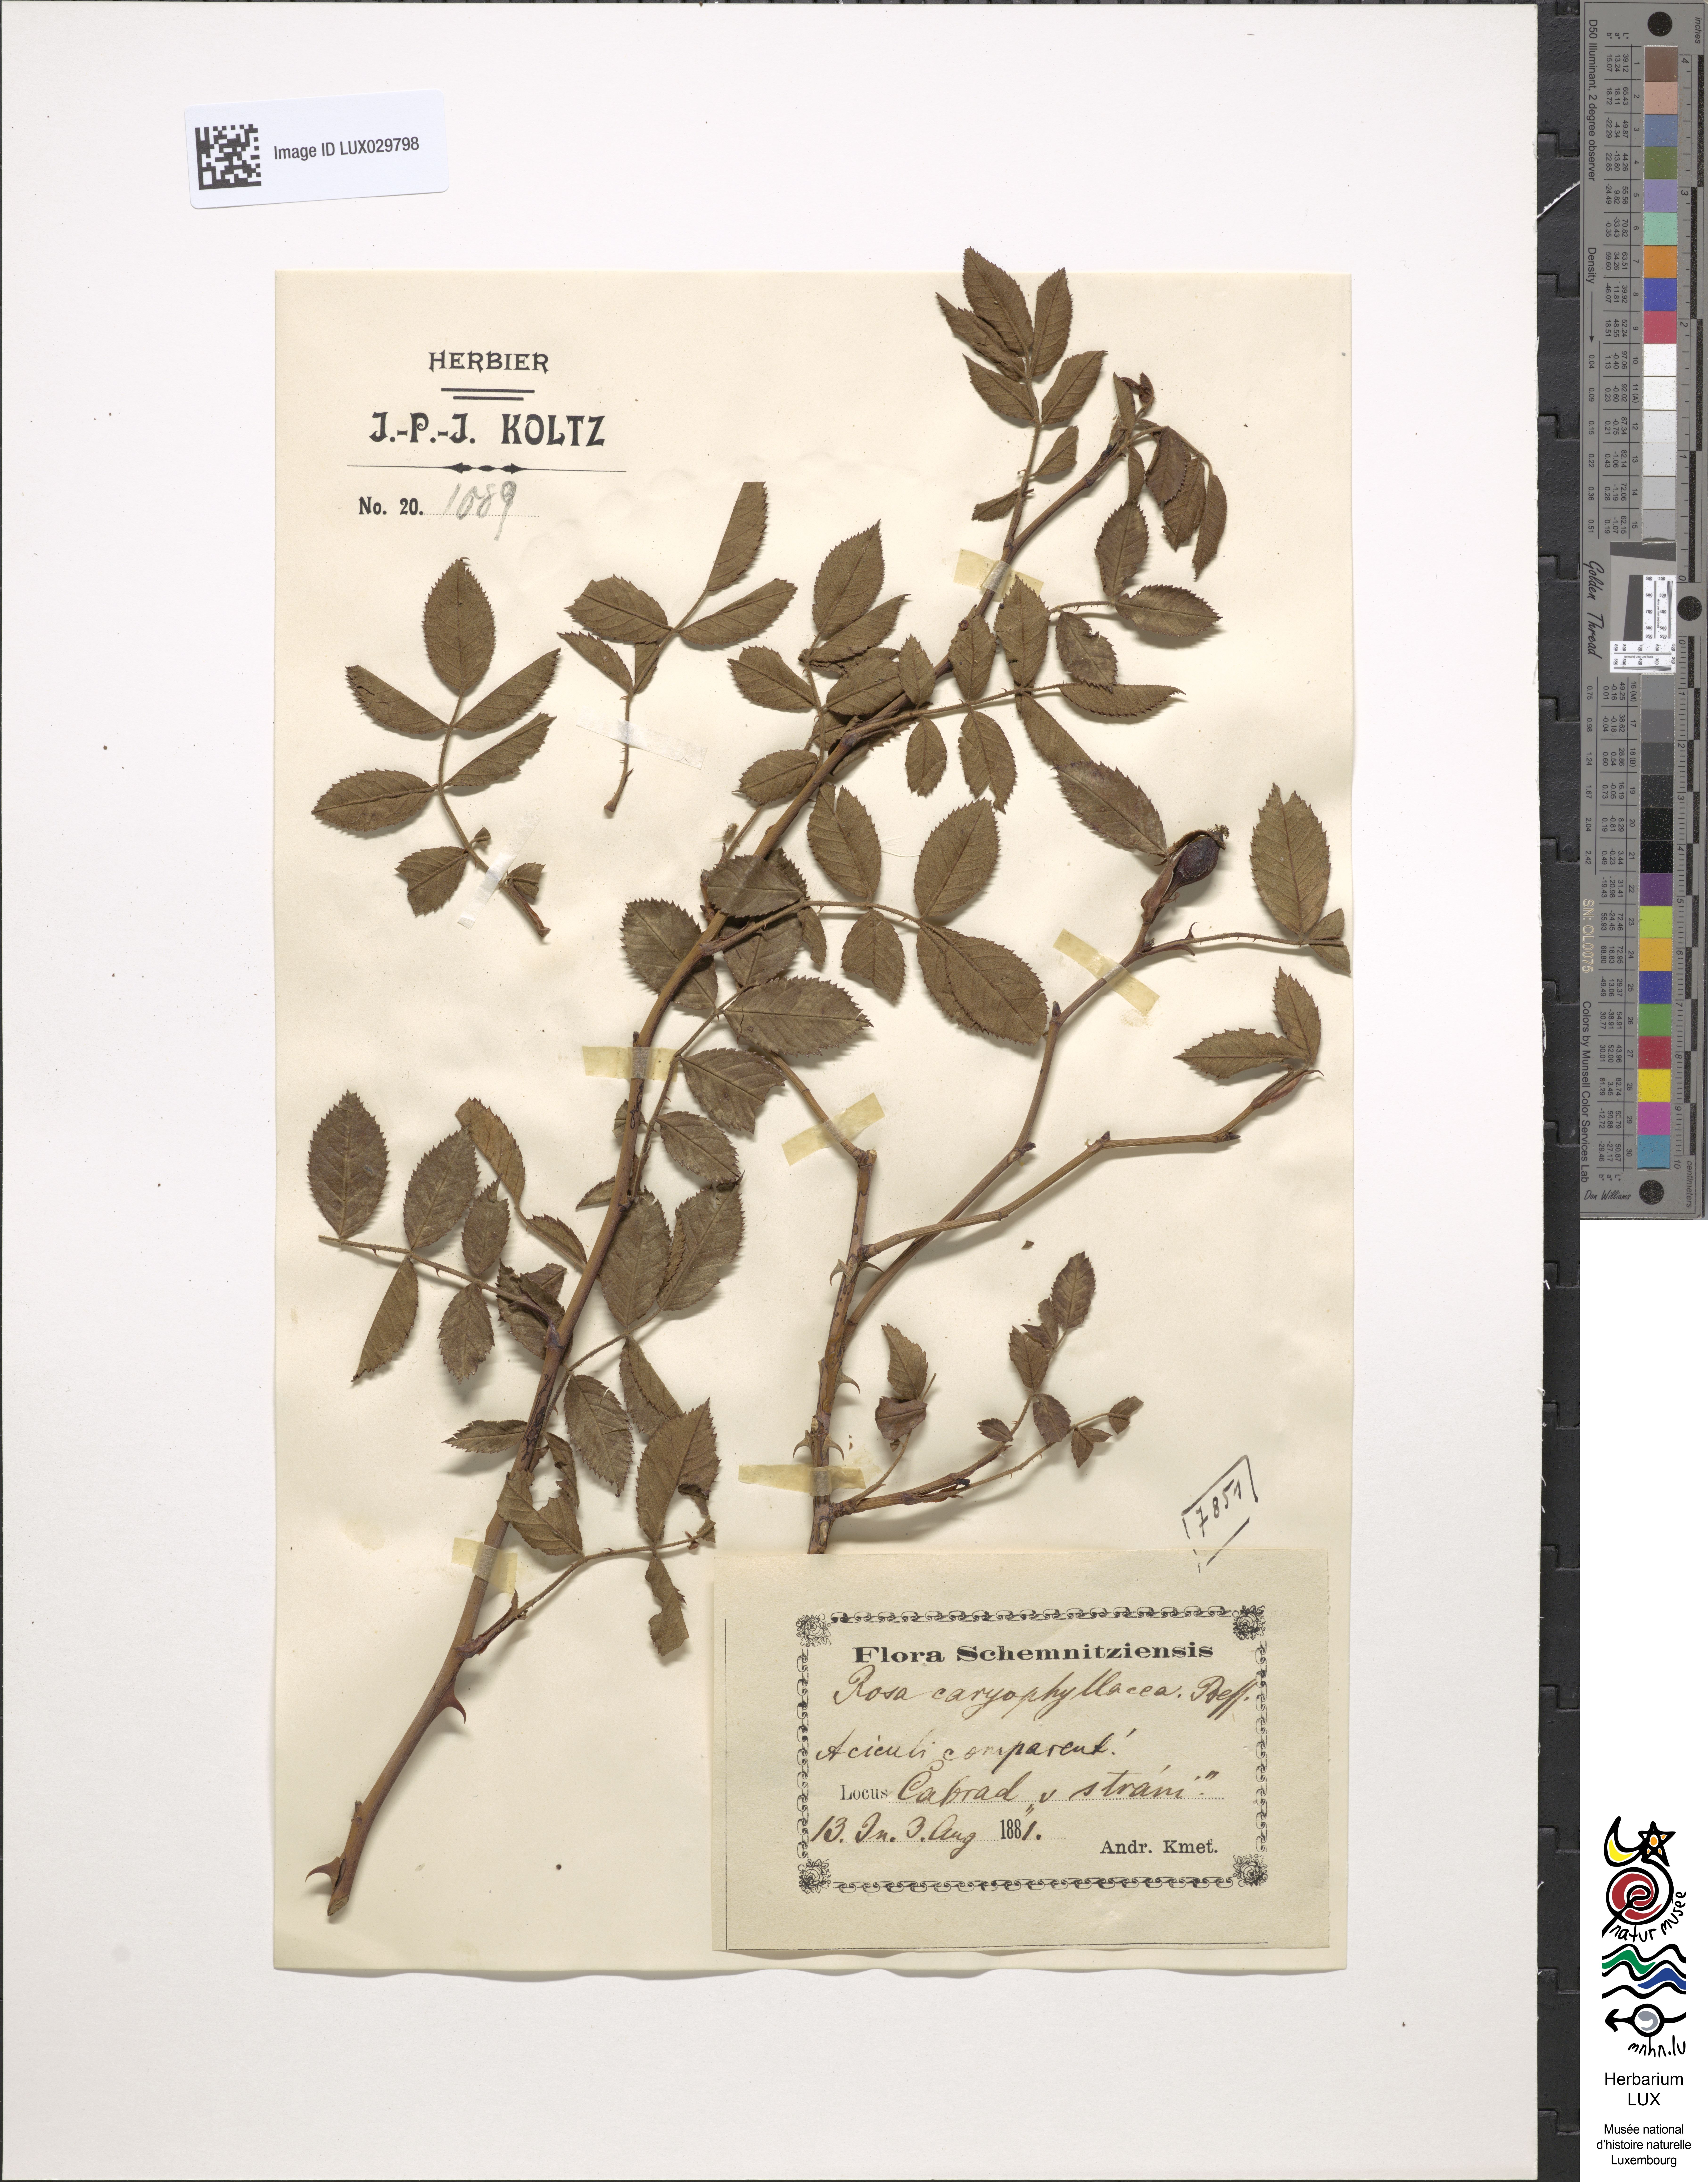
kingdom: Plantae
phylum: Tracheophyta
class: Magnoliopsida
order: Rosales
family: Rosaceae
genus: Rosa
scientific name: Rosa caryophyllacea
